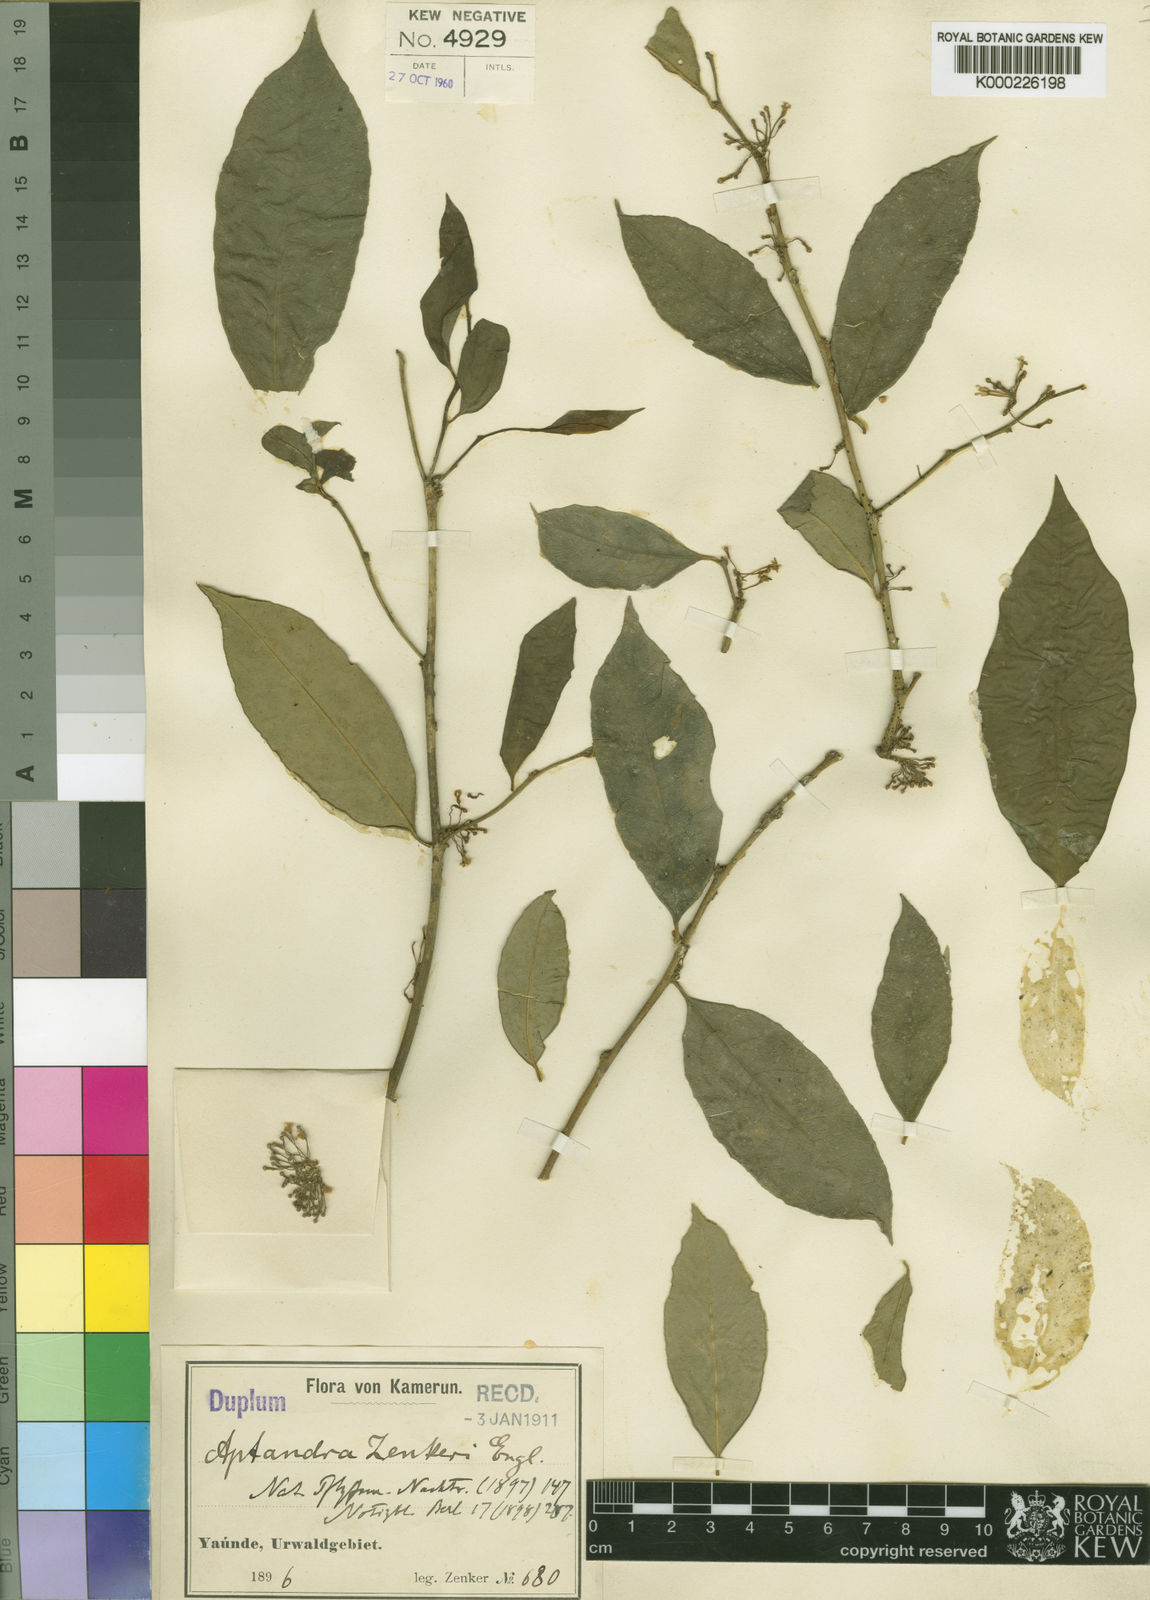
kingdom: Plantae
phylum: Tracheophyta
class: Magnoliopsida
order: Santalales
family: Aptandraceae
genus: Aptandra
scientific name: Aptandra zenkeri
